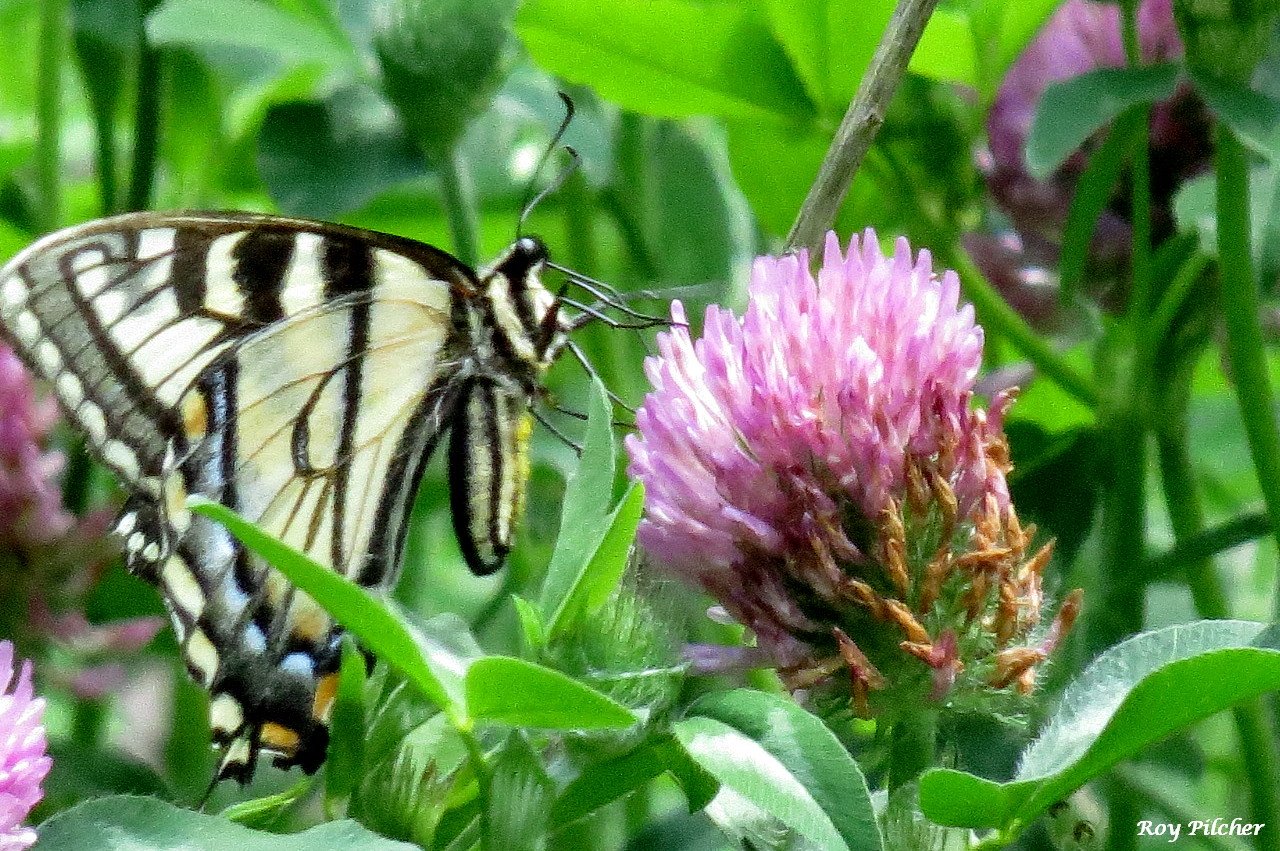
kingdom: Animalia
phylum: Arthropoda
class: Insecta
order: Lepidoptera
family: Papilionidae
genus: Pterourus
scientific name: Pterourus canadensis
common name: Canadian Tiger Swallowtail
